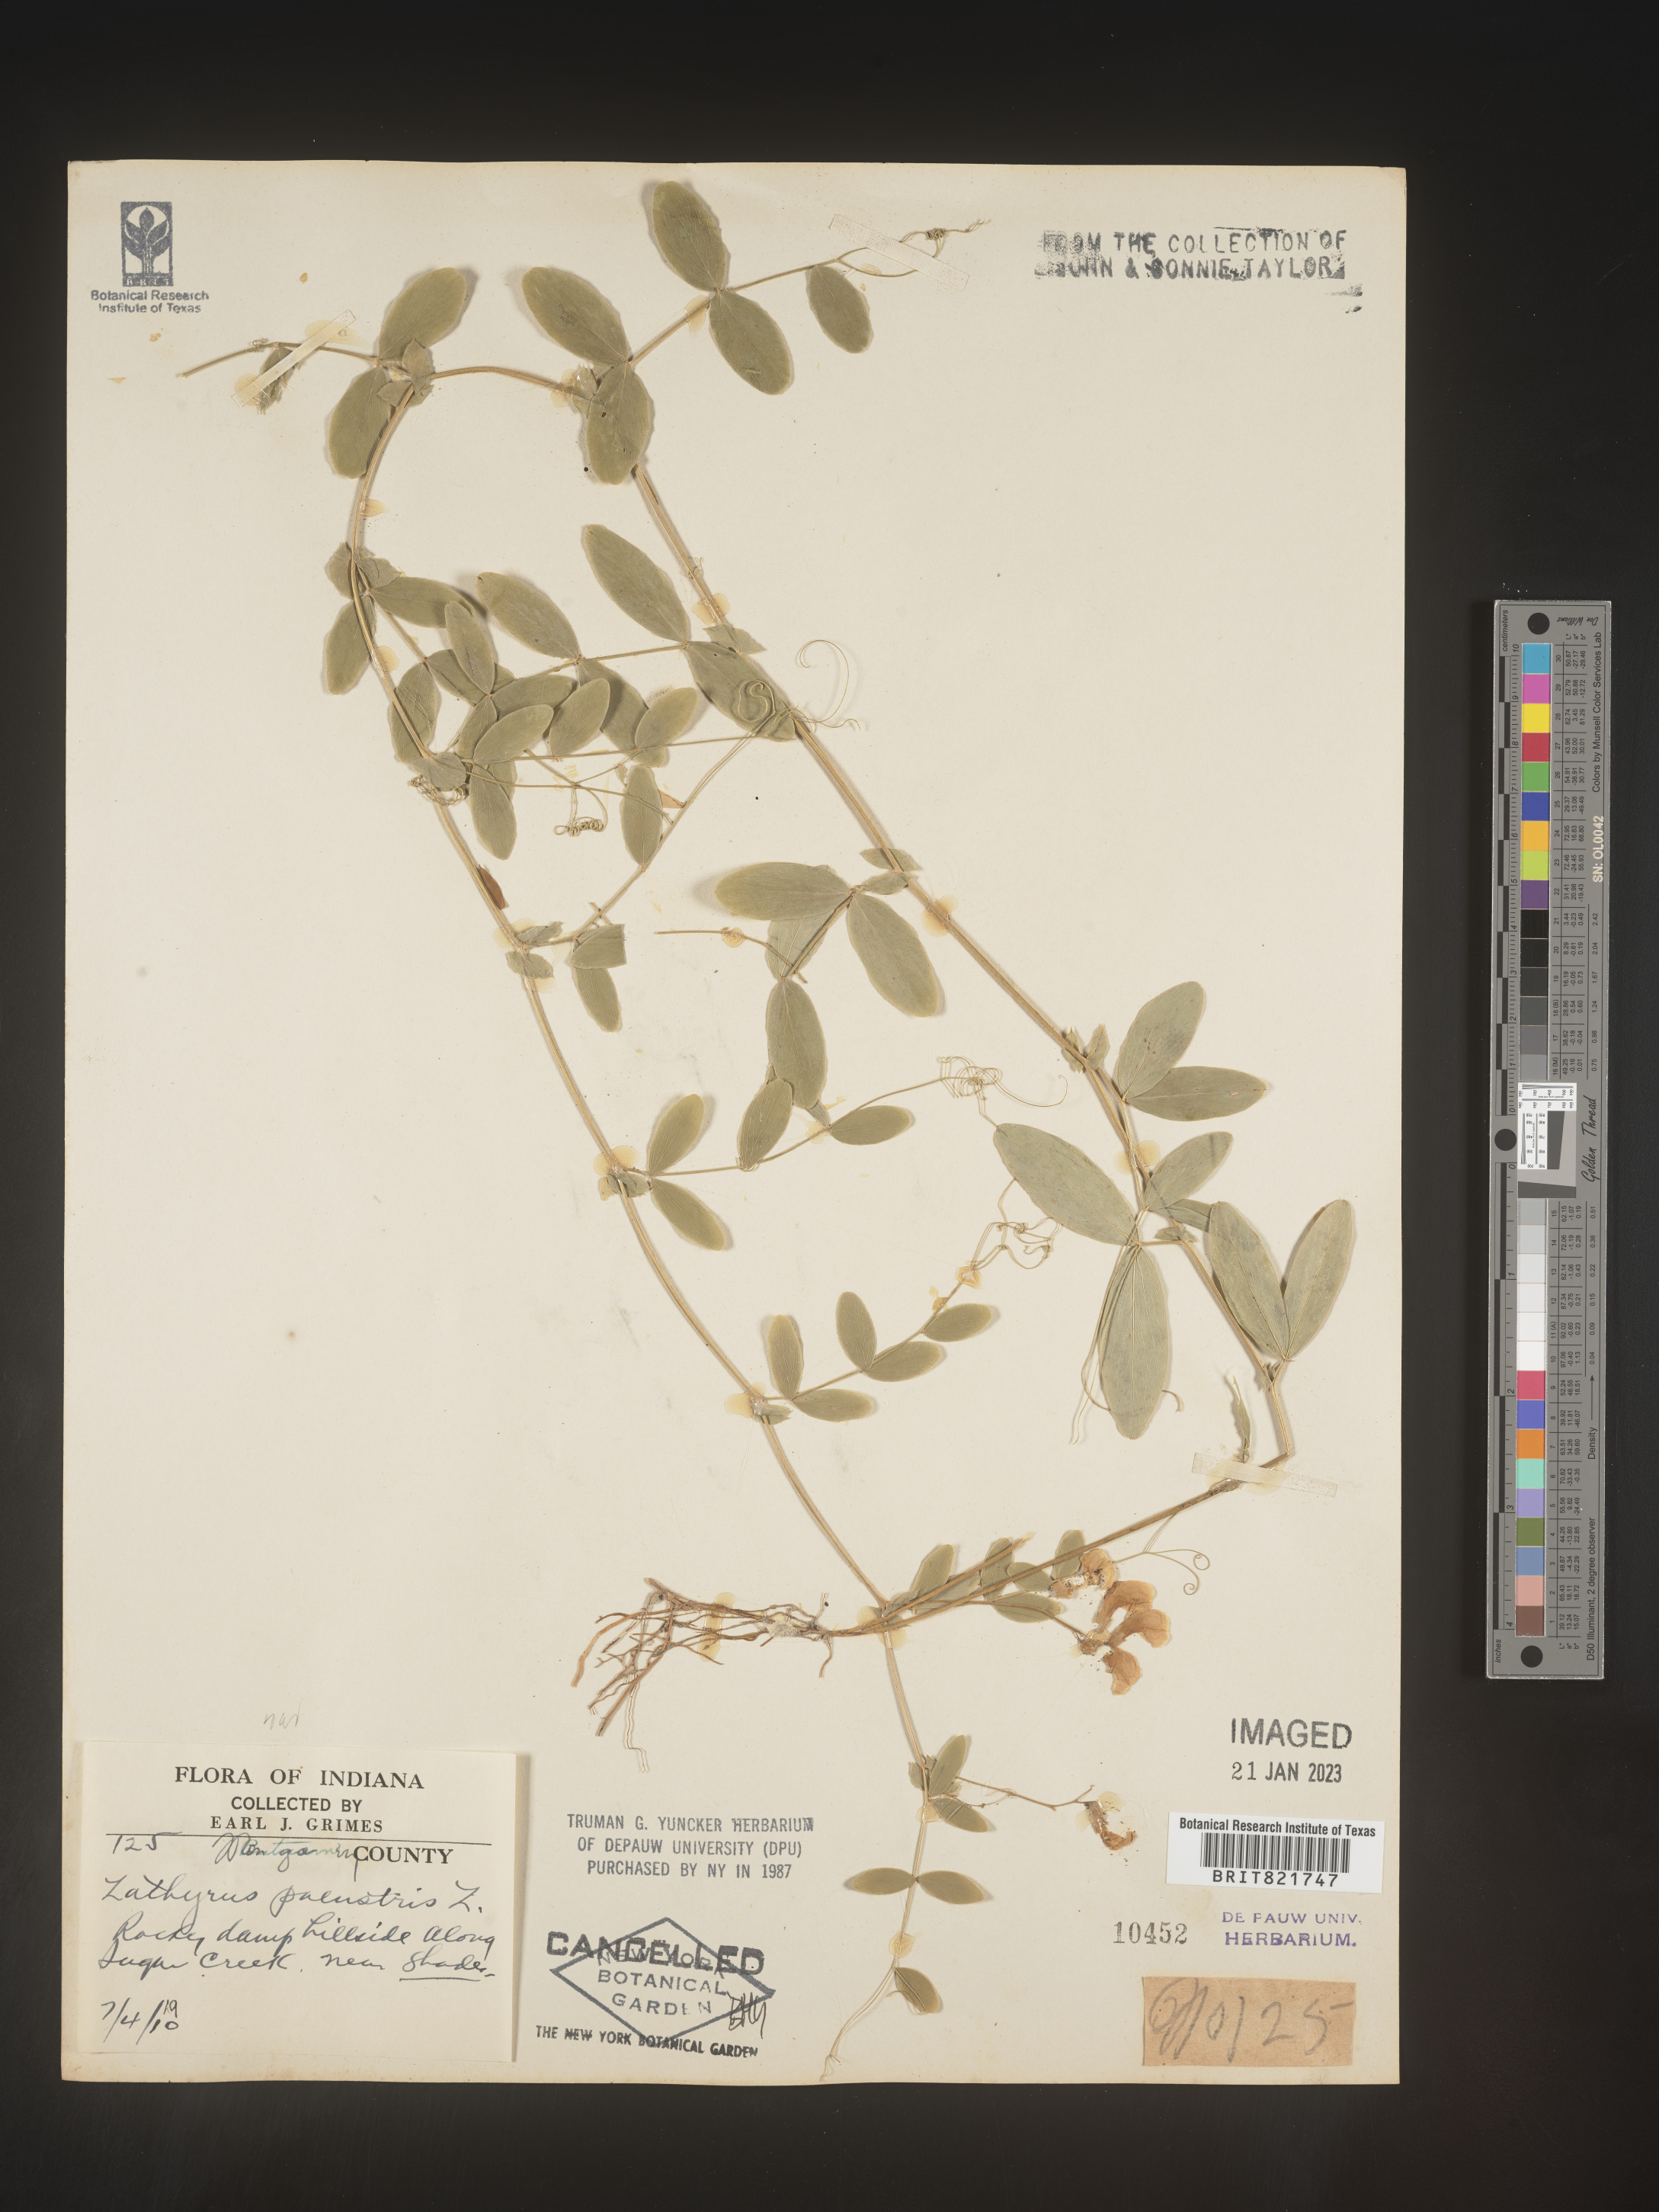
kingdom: Plantae
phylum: Tracheophyta
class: Magnoliopsida
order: Fabales
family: Fabaceae
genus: Lathyrus
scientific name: Lathyrus palustris
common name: Marsh pea
